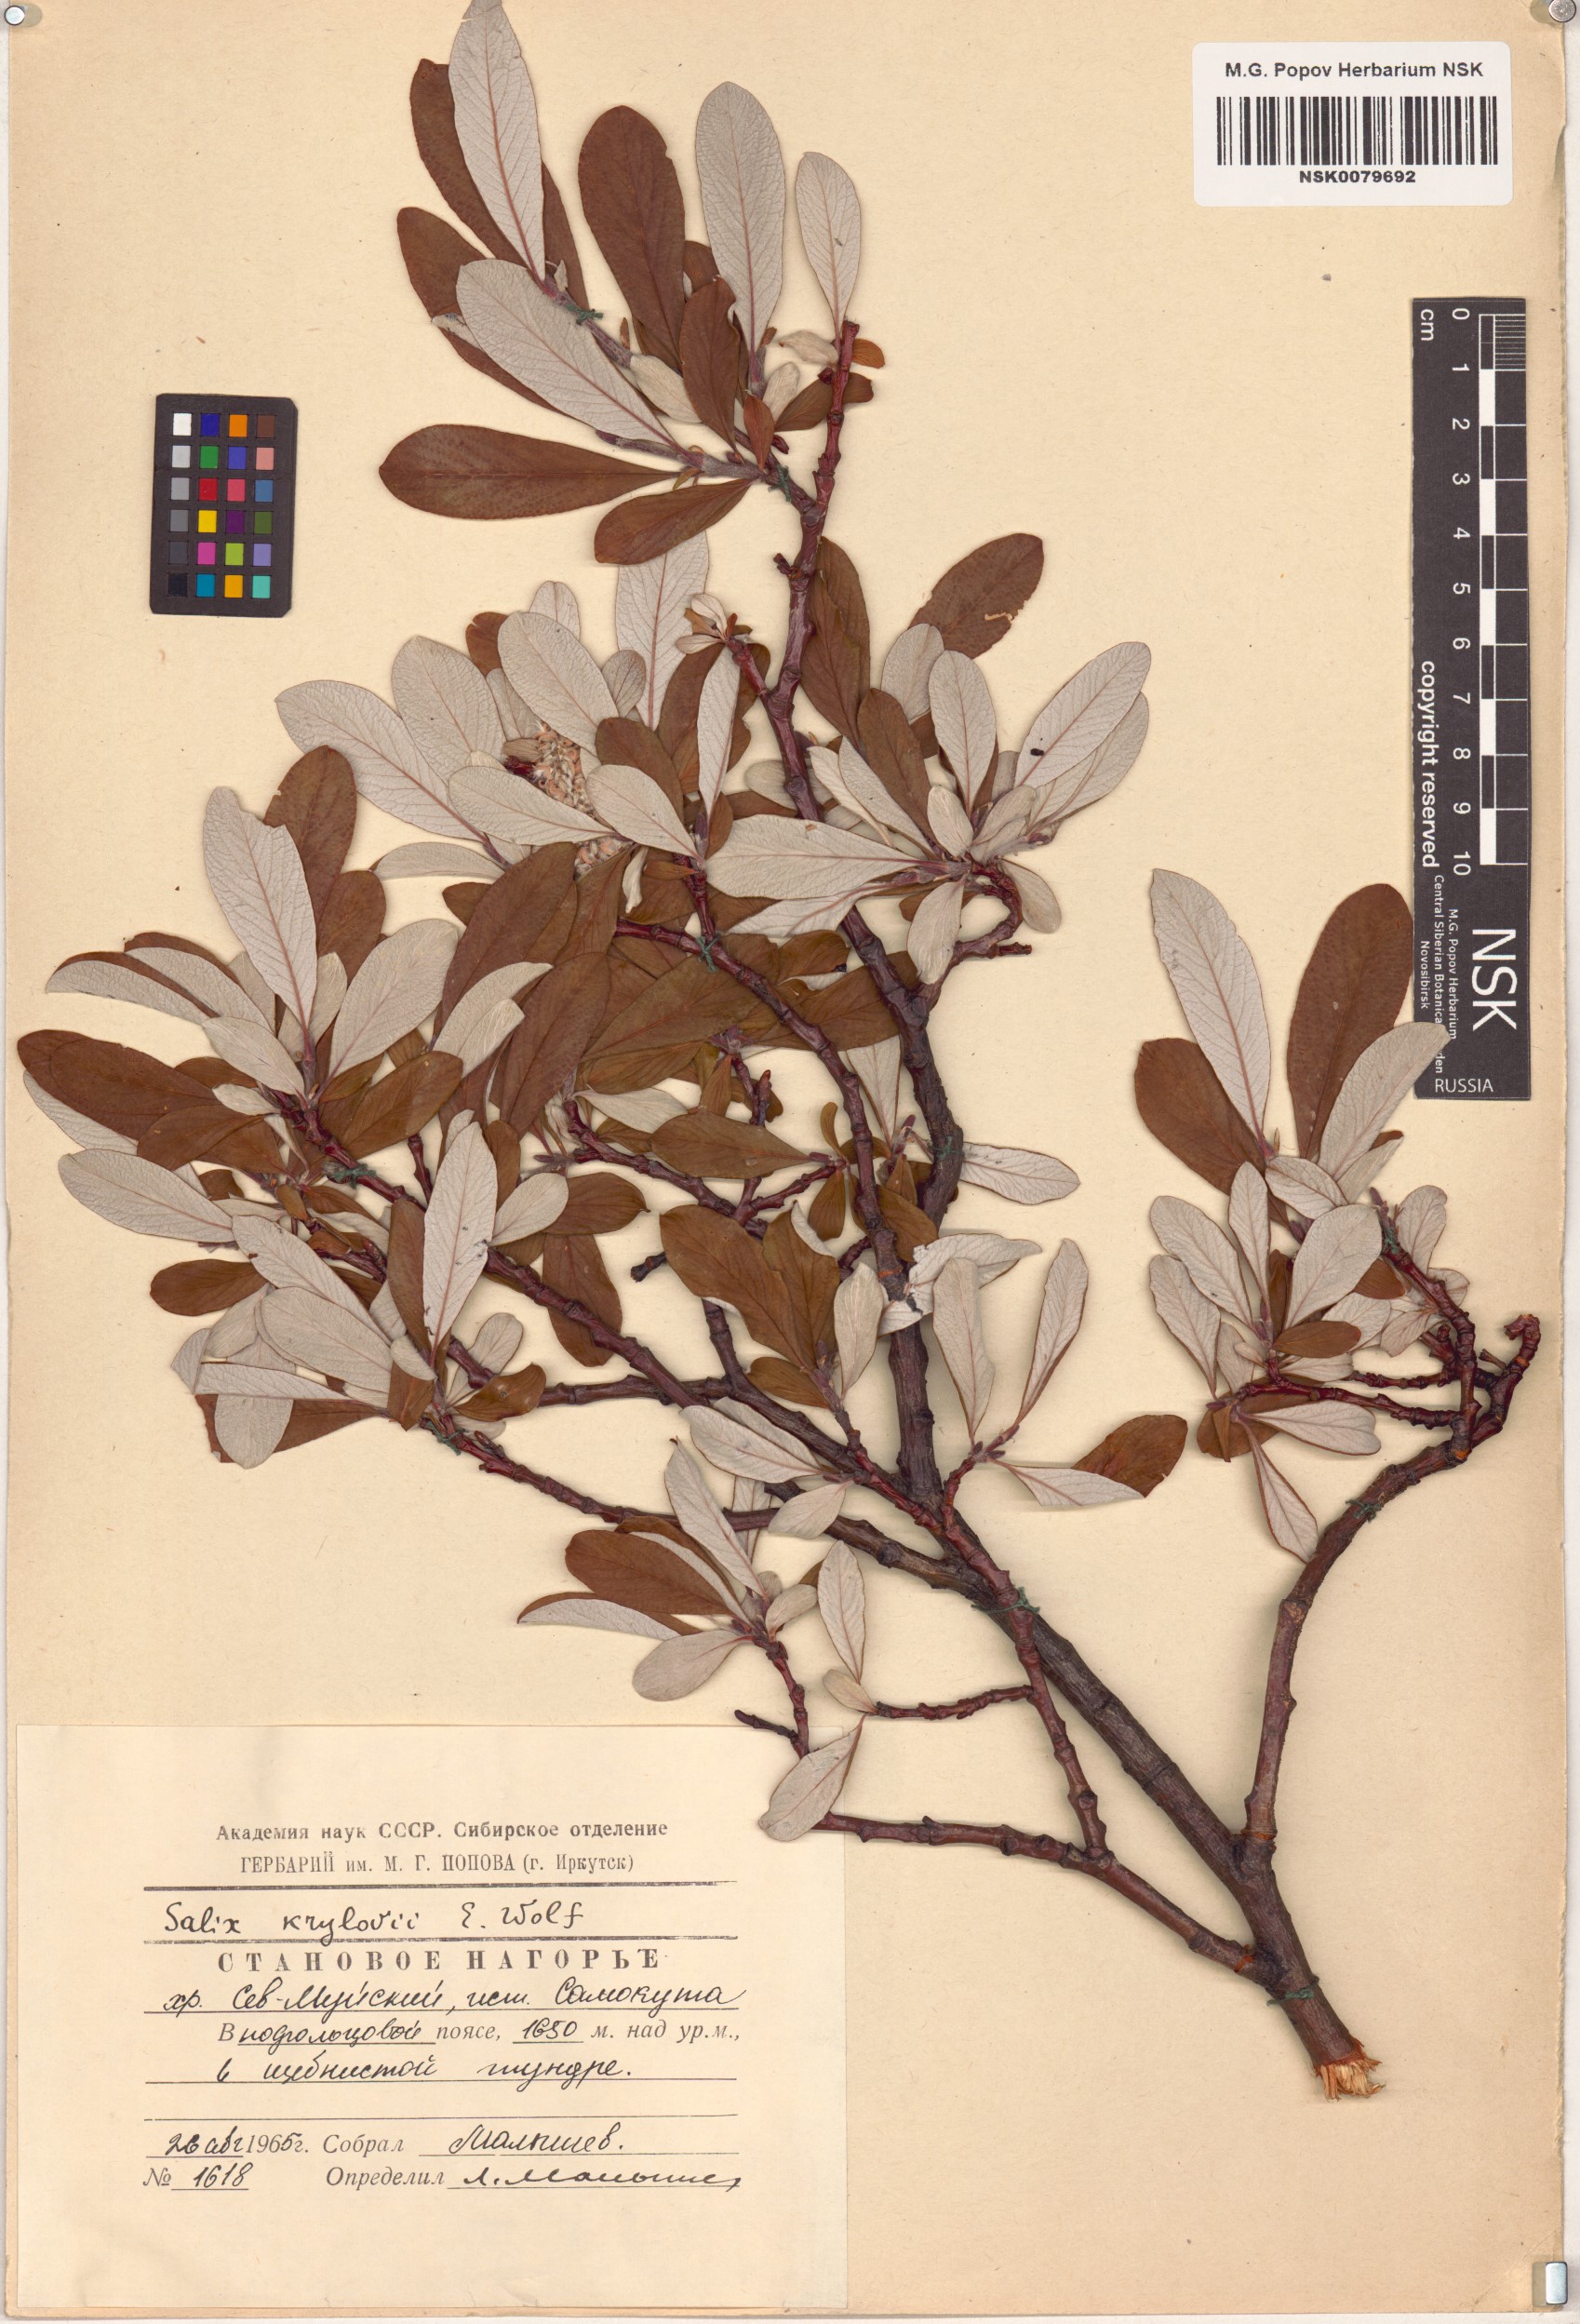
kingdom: Plantae
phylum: Tracheophyta
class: Magnoliopsida
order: Malpighiales
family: Salicaceae
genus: Salix
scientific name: Salix krylovii
